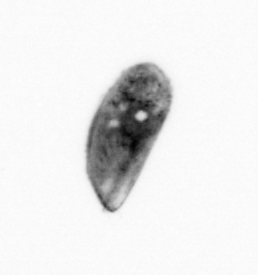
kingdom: Animalia
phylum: Arthropoda
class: Maxillopoda
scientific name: Maxillopoda
